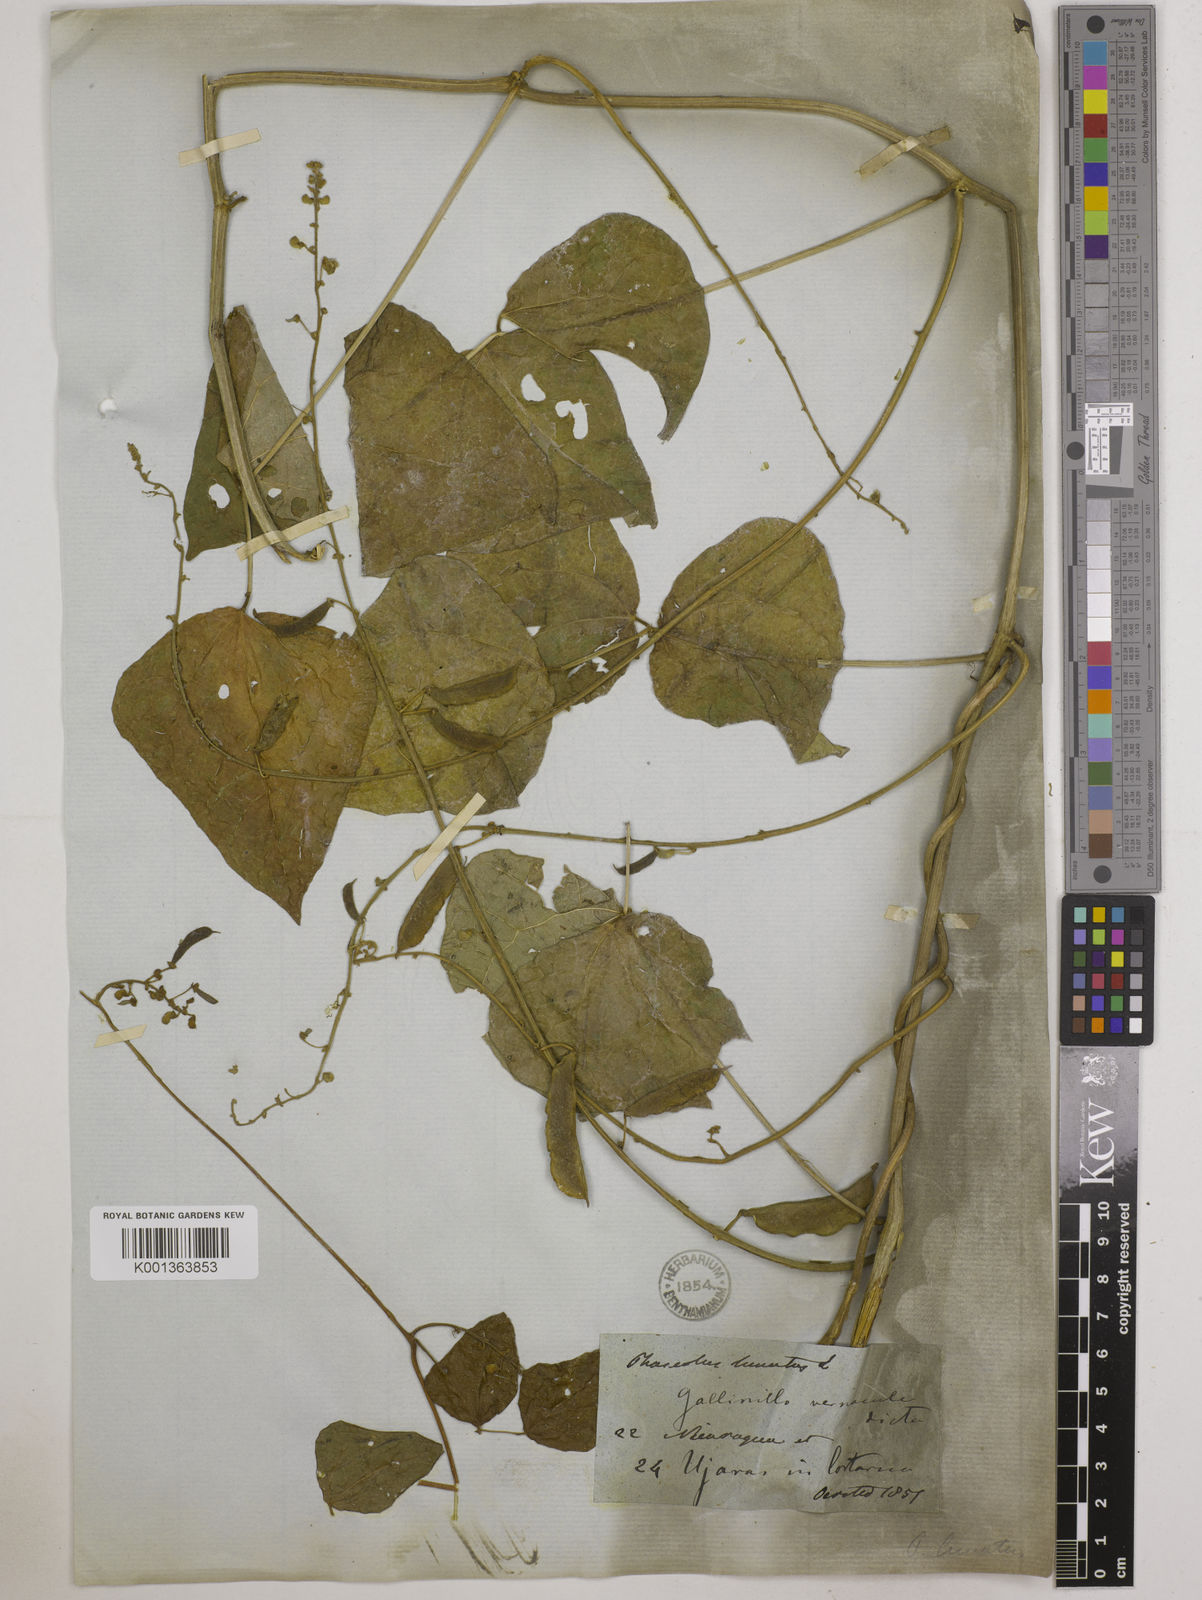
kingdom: Plantae
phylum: Tracheophyta
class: Magnoliopsida
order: Fabales
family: Fabaceae
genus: Phaseolus
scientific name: Phaseolus lunatus
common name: Sieva bean
